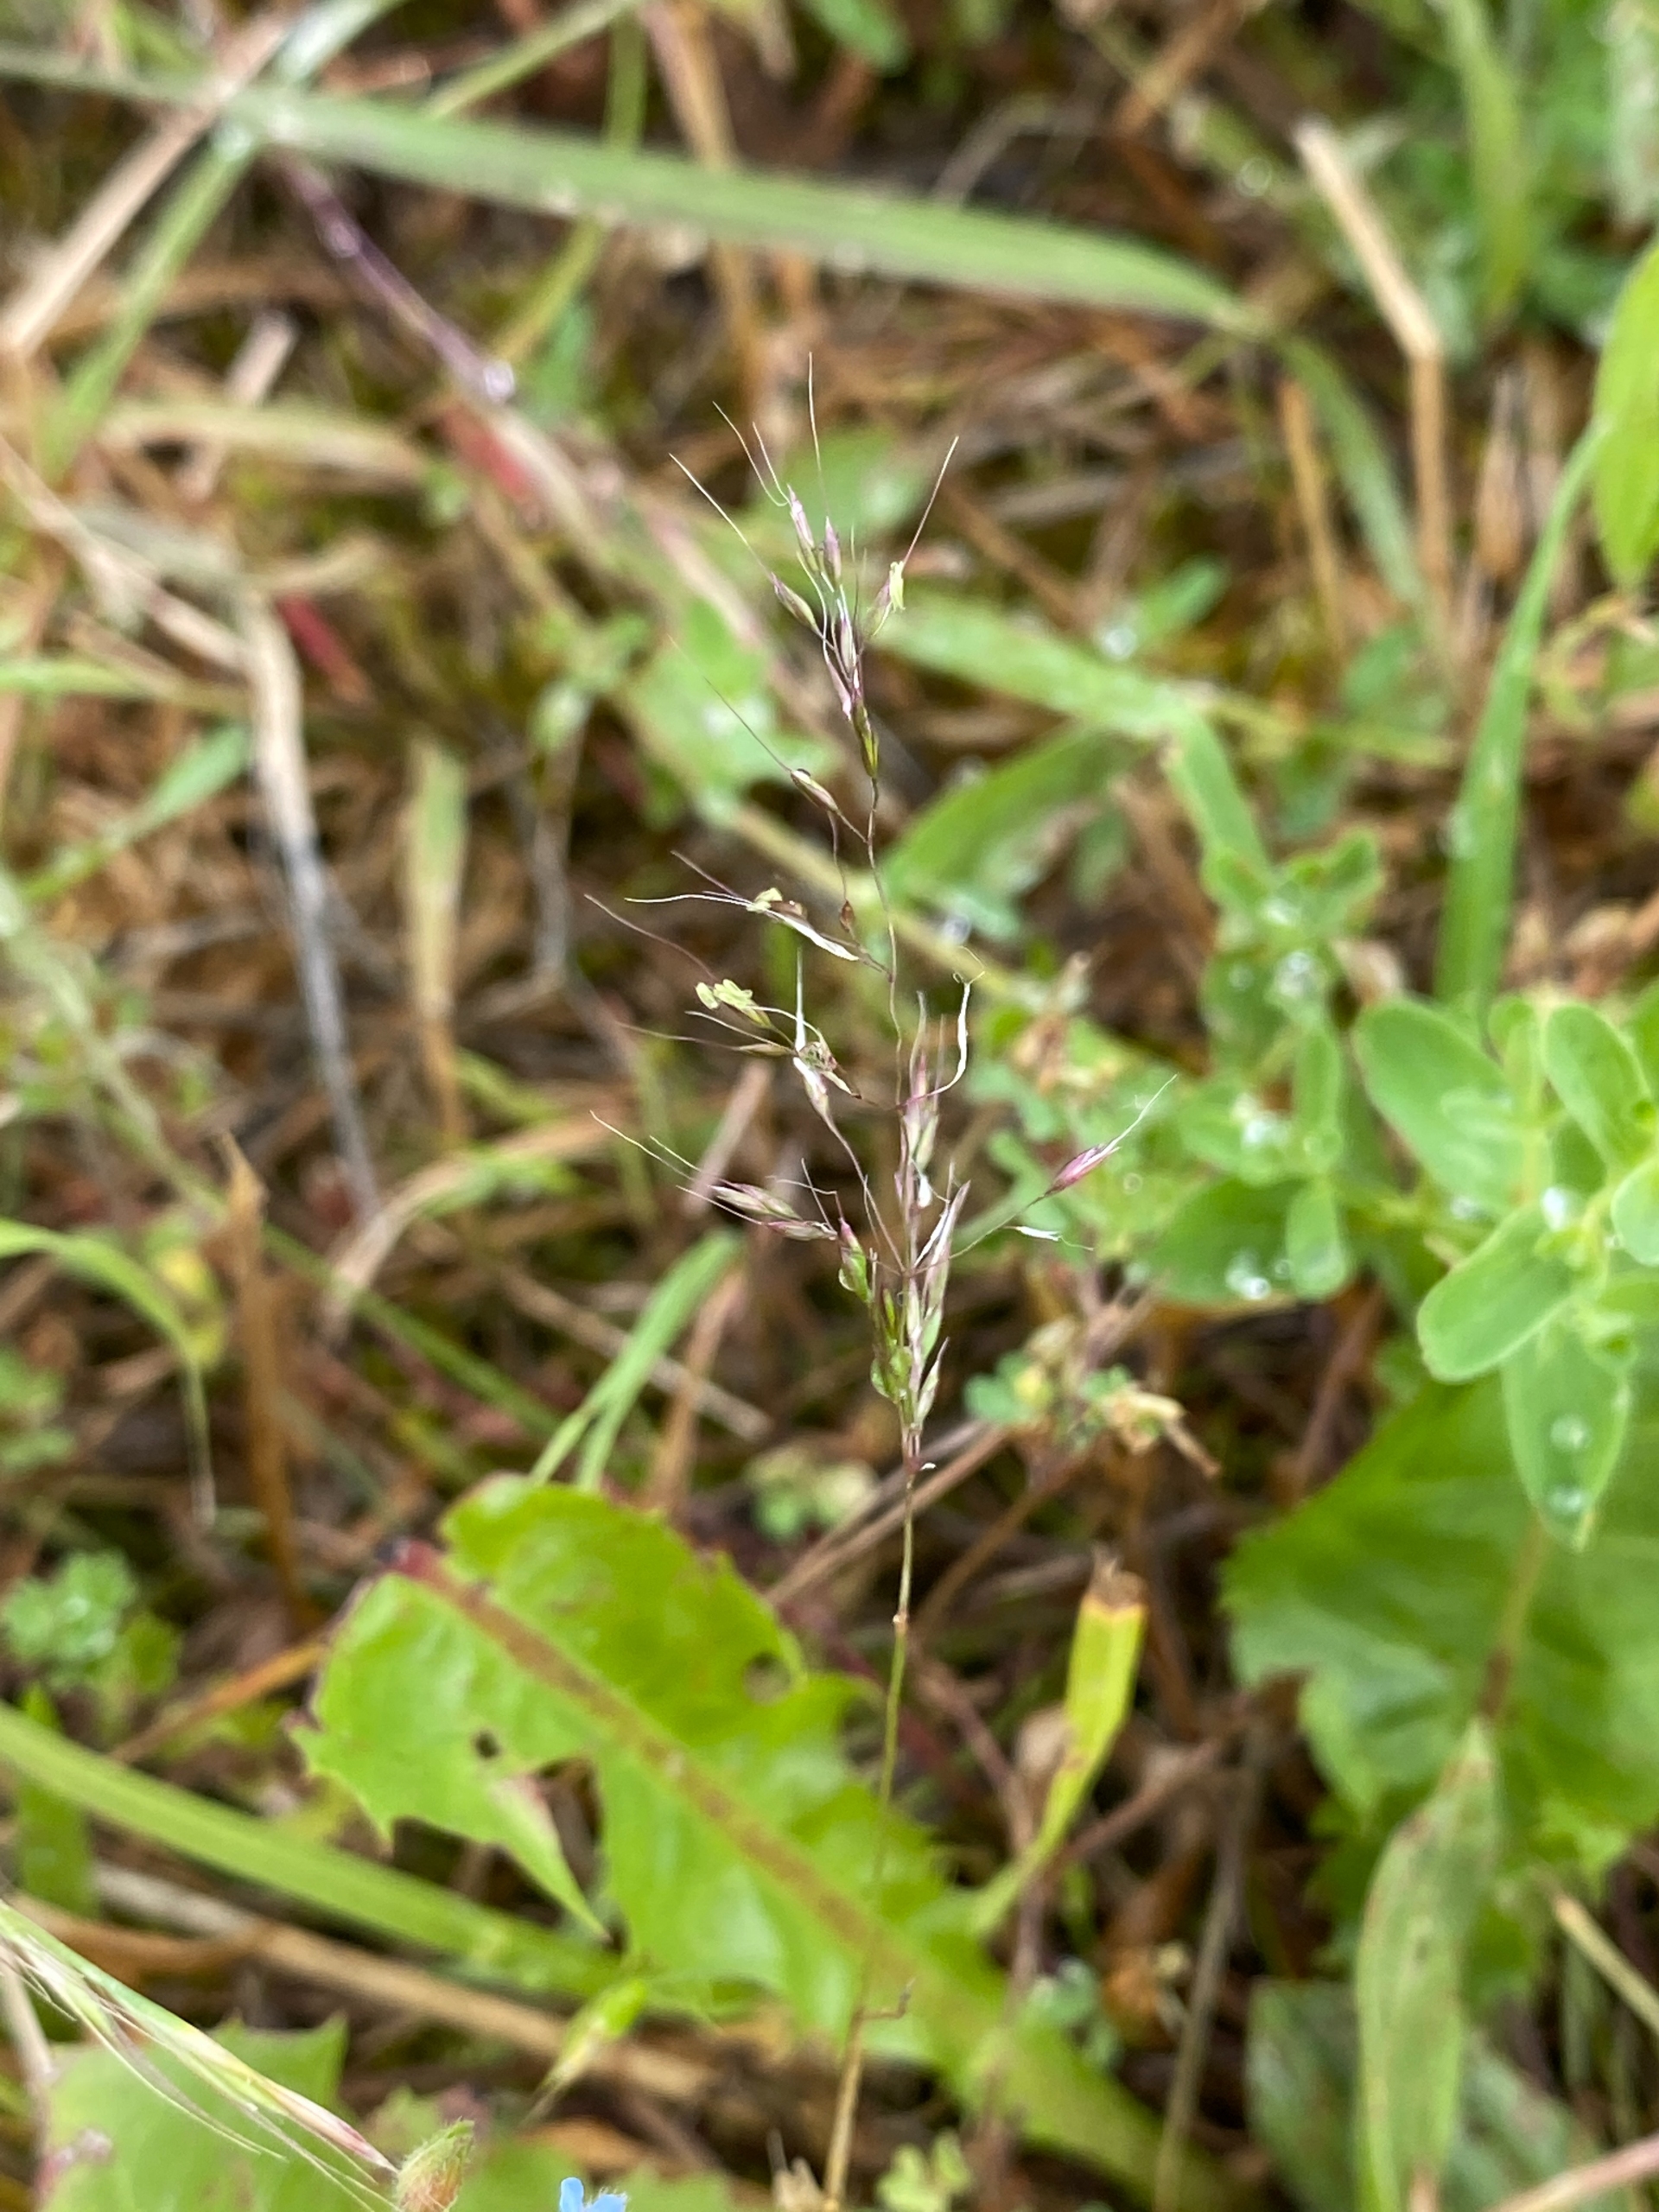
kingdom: Plantae
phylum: Tracheophyta
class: Liliopsida
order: Poales
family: Poaceae
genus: Apera
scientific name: Apera spica-venti
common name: Vindaks
